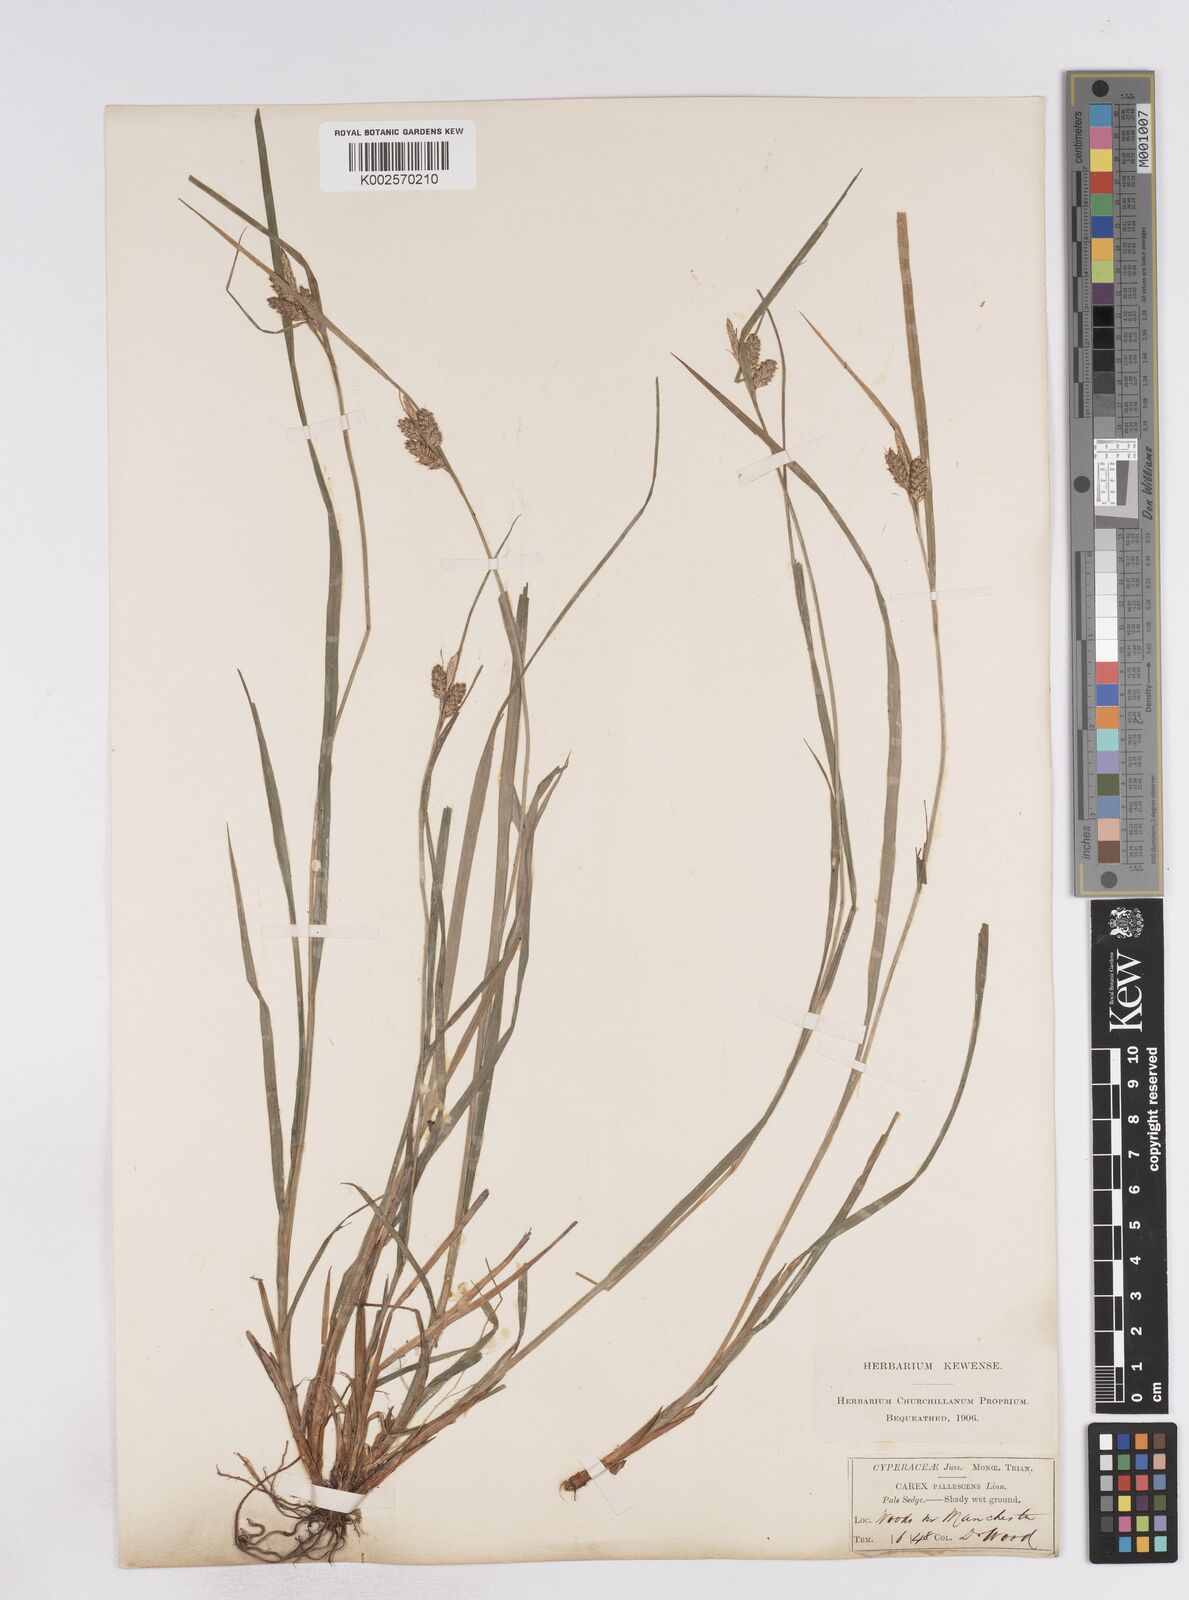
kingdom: Plantae
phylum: Tracheophyta
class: Liliopsida
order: Poales
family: Cyperaceae
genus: Carex
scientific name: Carex pallescens
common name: Pale sedge
